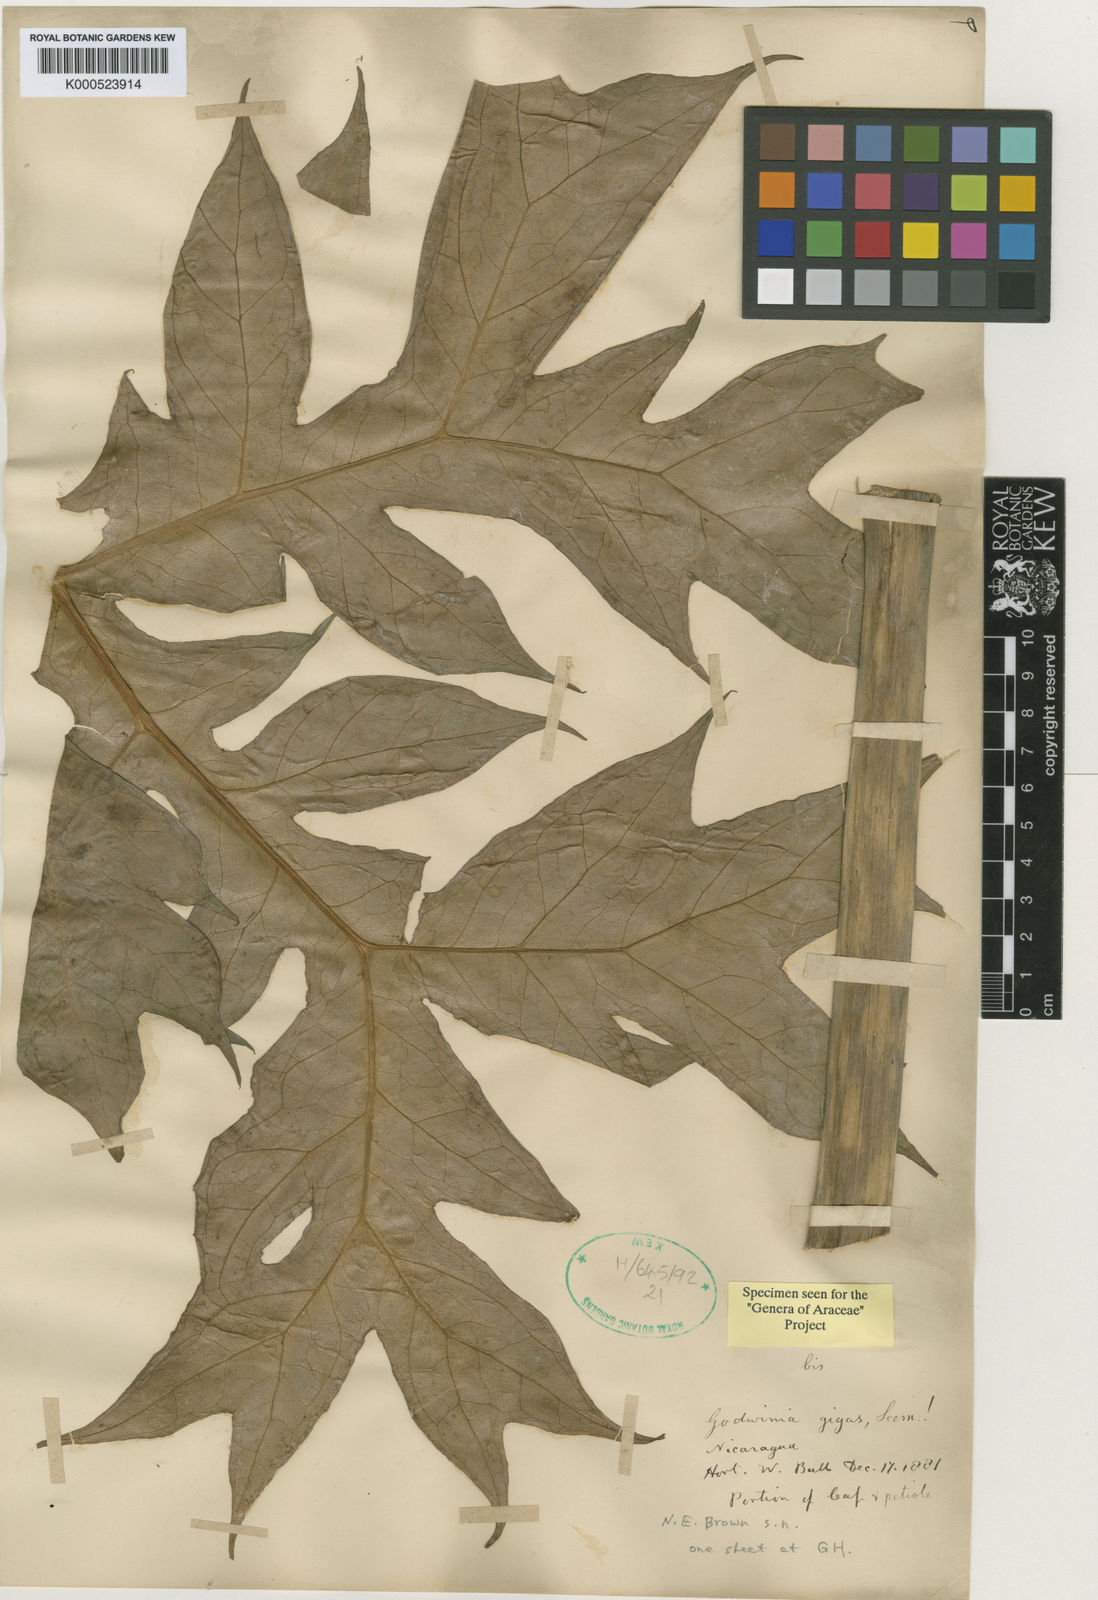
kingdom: Plantae
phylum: Tracheophyta
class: Liliopsida
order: Alismatales
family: Araceae
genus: Dracontium
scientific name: Dracontium gigas
